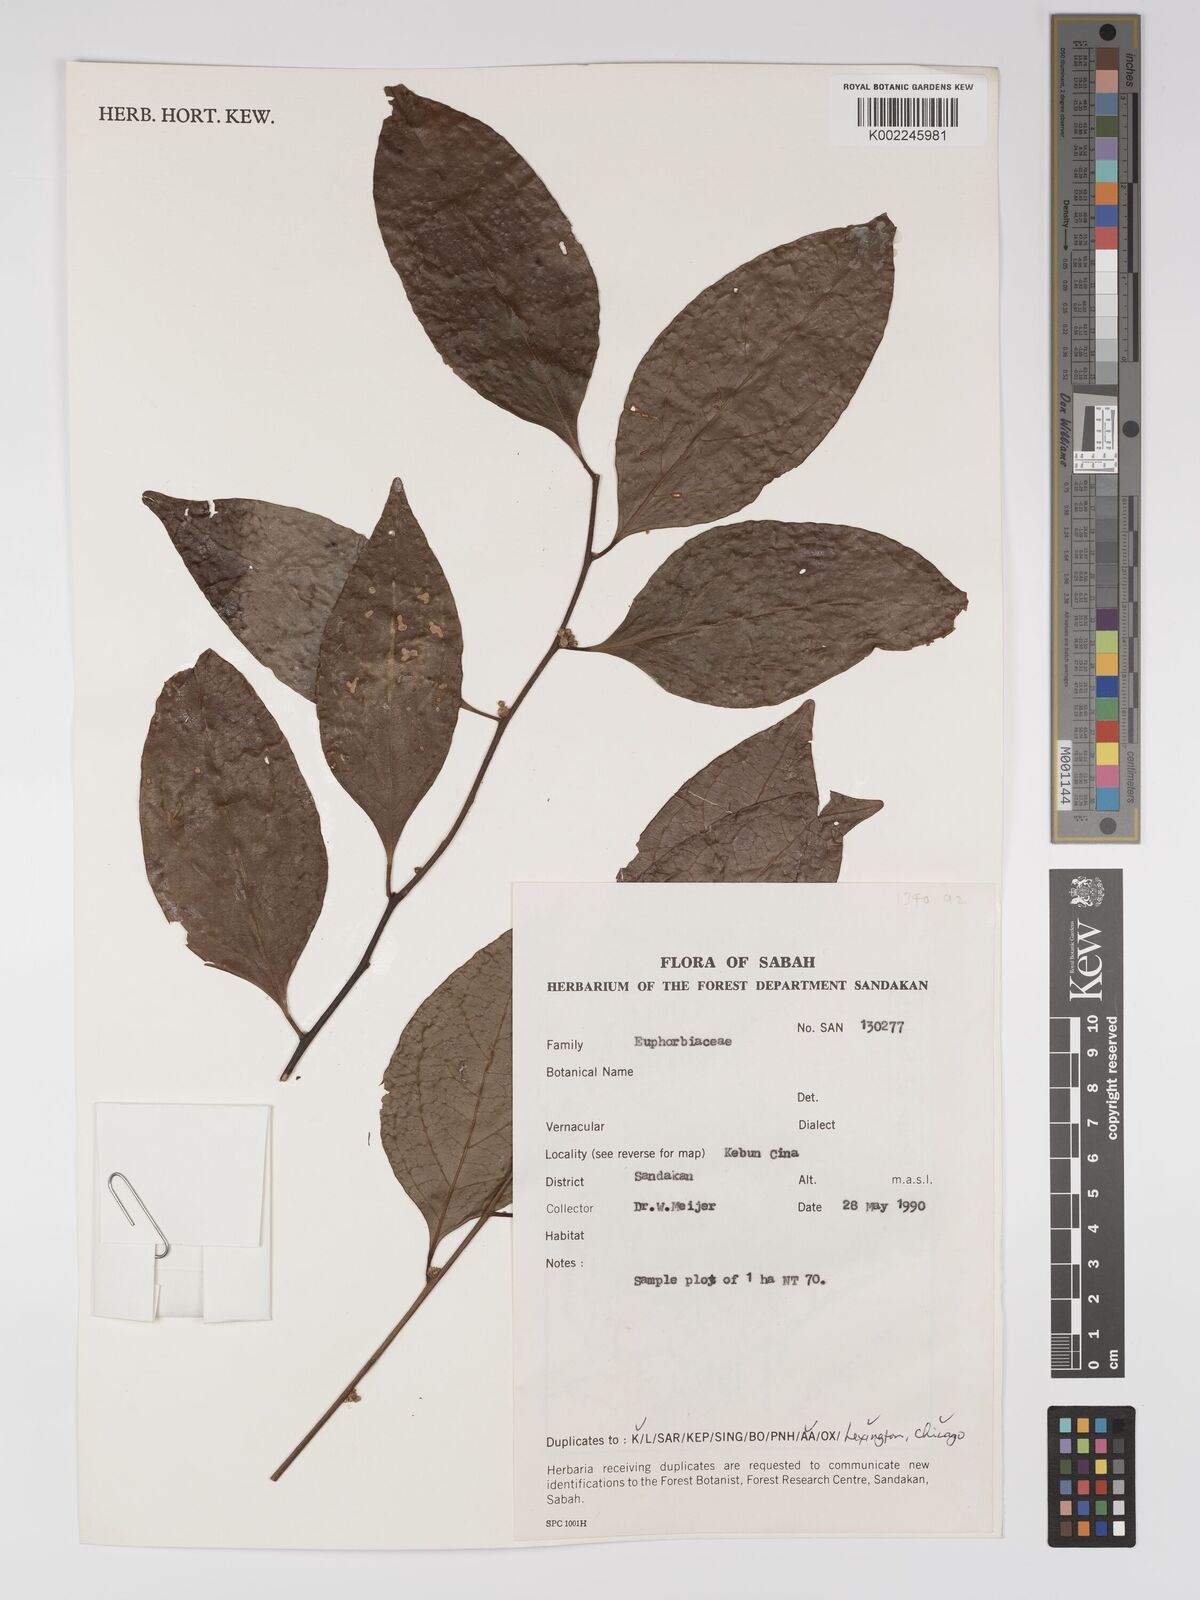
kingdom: Plantae
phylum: Tracheophyta
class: Magnoliopsida
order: Malpighiales
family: Euphorbiaceae
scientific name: Euphorbiaceae
